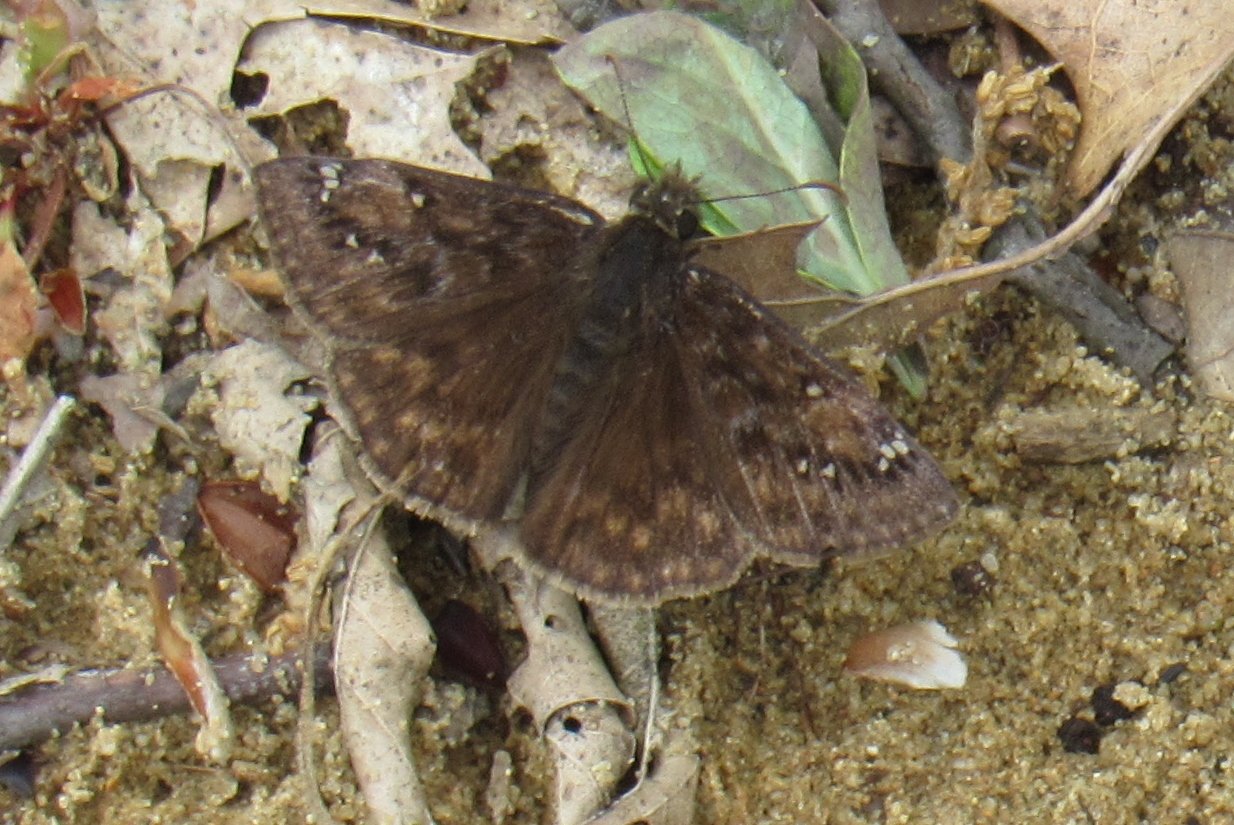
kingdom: Animalia
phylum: Arthropoda
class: Insecta
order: Lepidoptera
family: Hesperiidae
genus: Gesta
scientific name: Gesta
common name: Juvenal's Duskywing
